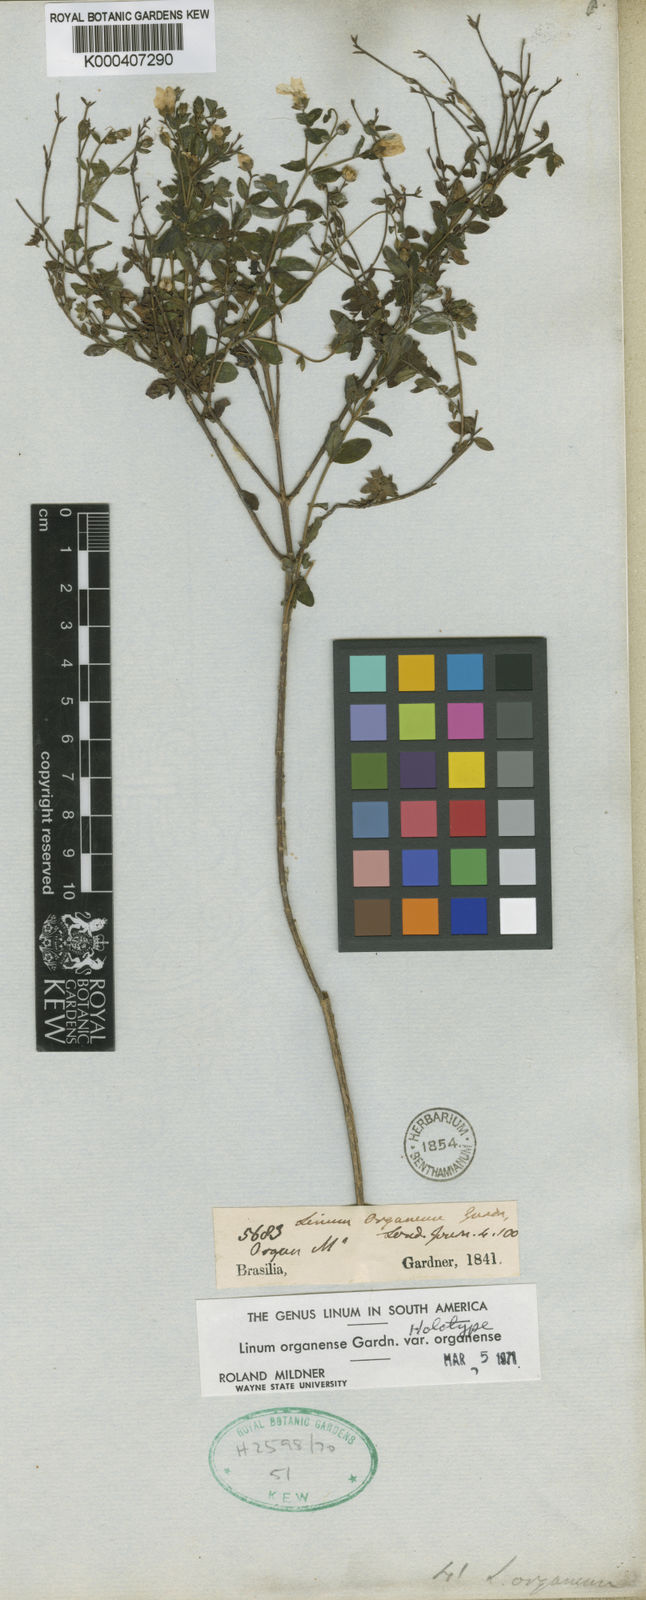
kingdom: Plantae
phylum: Tracheophyta
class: Magnoliopsida
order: Malpighiales
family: Linaceae
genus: Linum
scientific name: Linum organense
